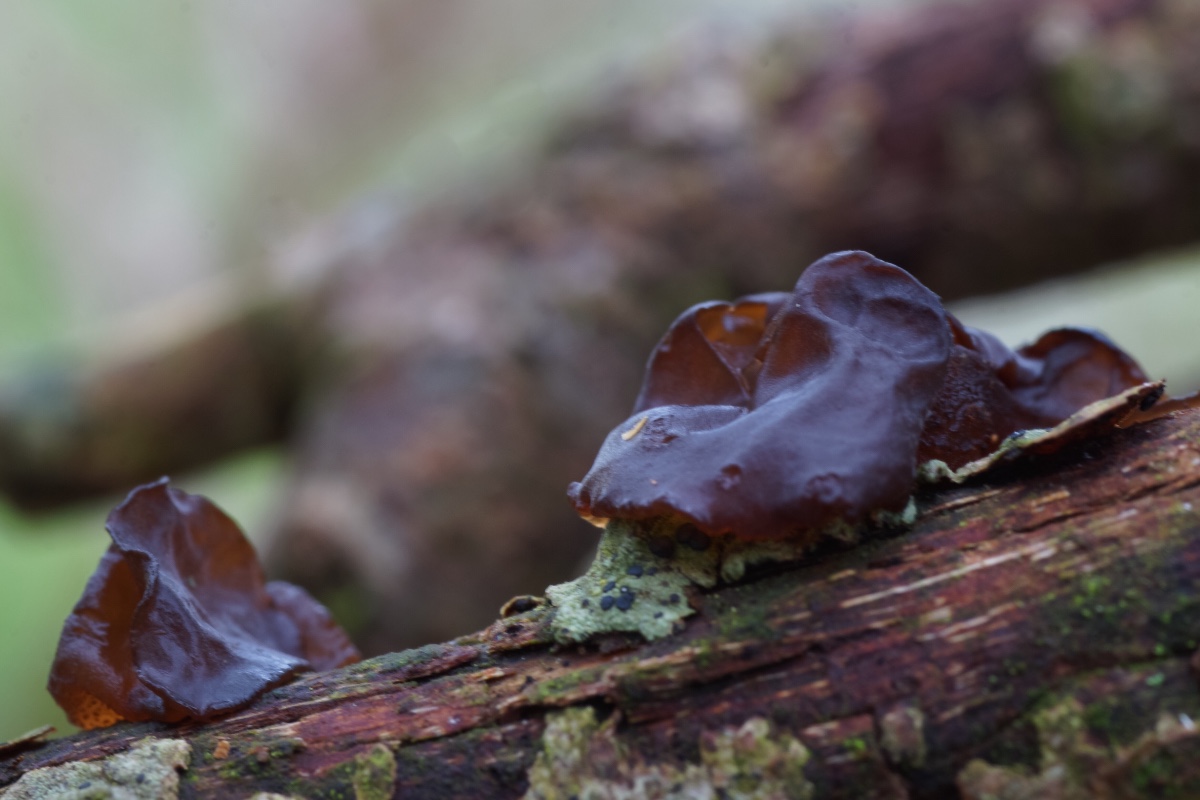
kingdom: Fungi
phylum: Basidiomycota
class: Agaricomycetes
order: Auriculariales
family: Auriculariaceae
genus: Exidia
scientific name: Exidia recisa
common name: pile-bævretop
